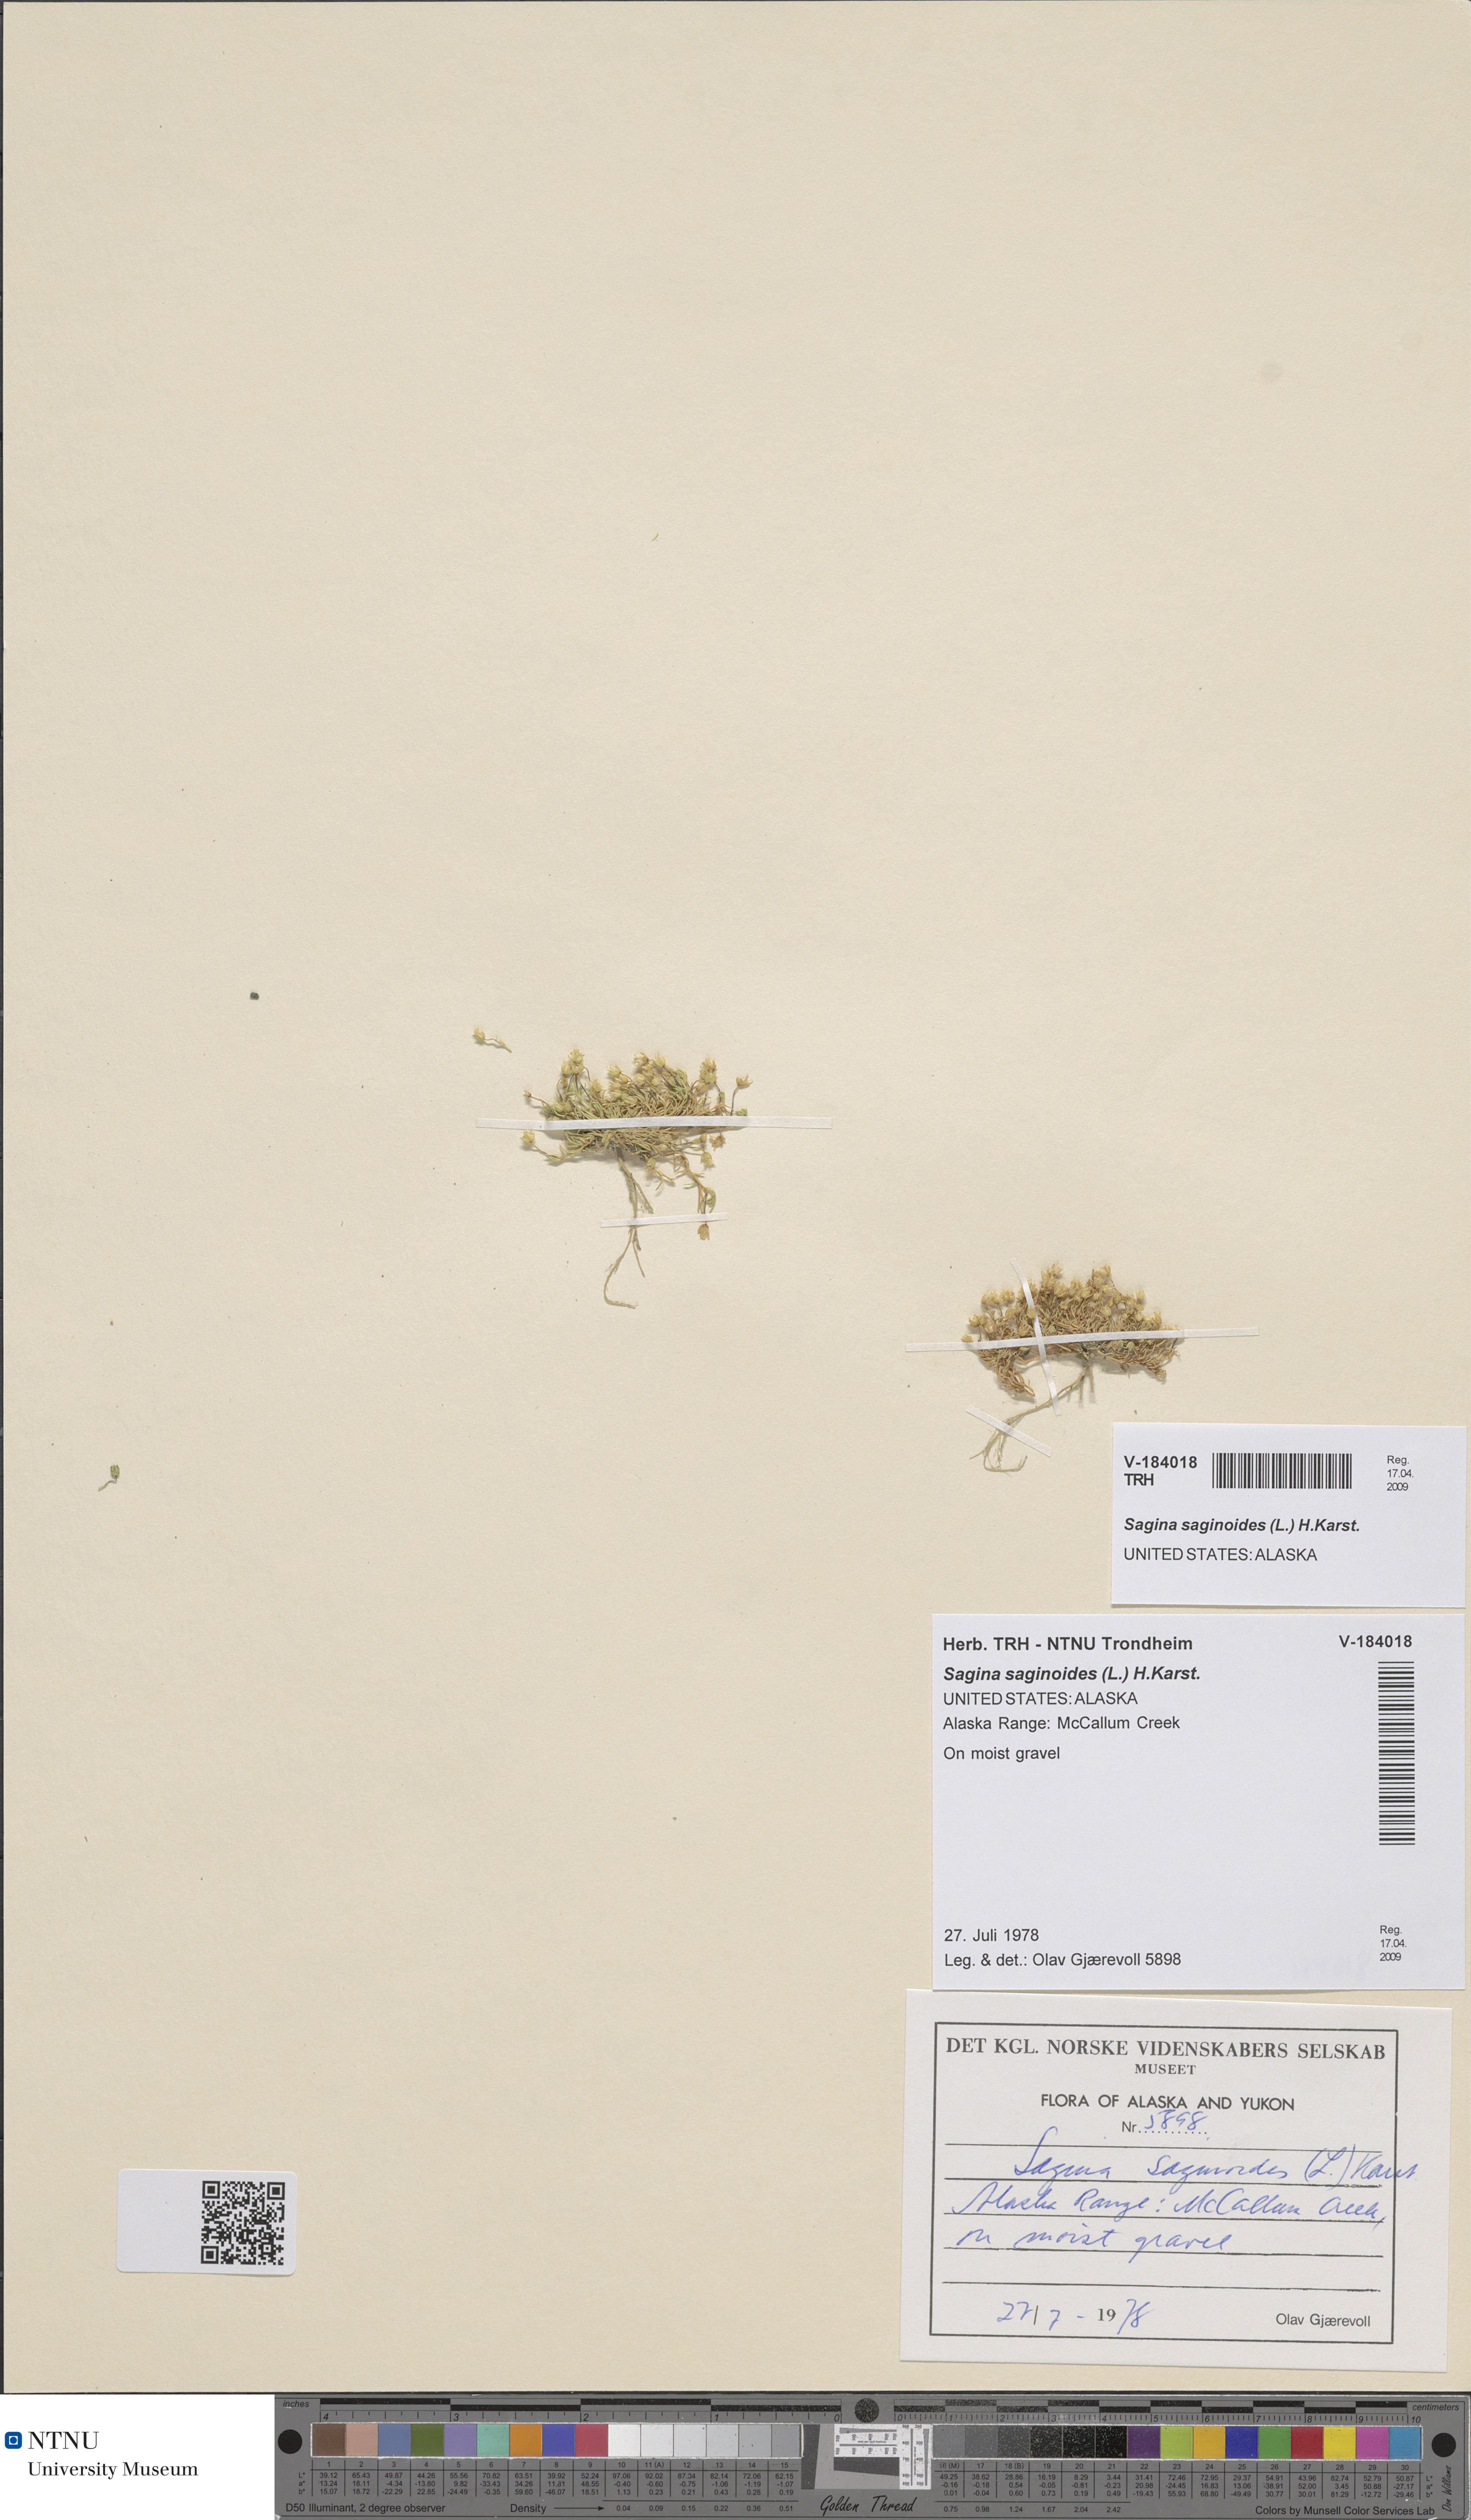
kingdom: Plantae
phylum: Tracheophyta
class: Magnoliopsida
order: Caryophyllales
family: Caryophyllaceae
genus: Sagina
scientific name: Sagina saginoides
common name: Alpine pearlwort
